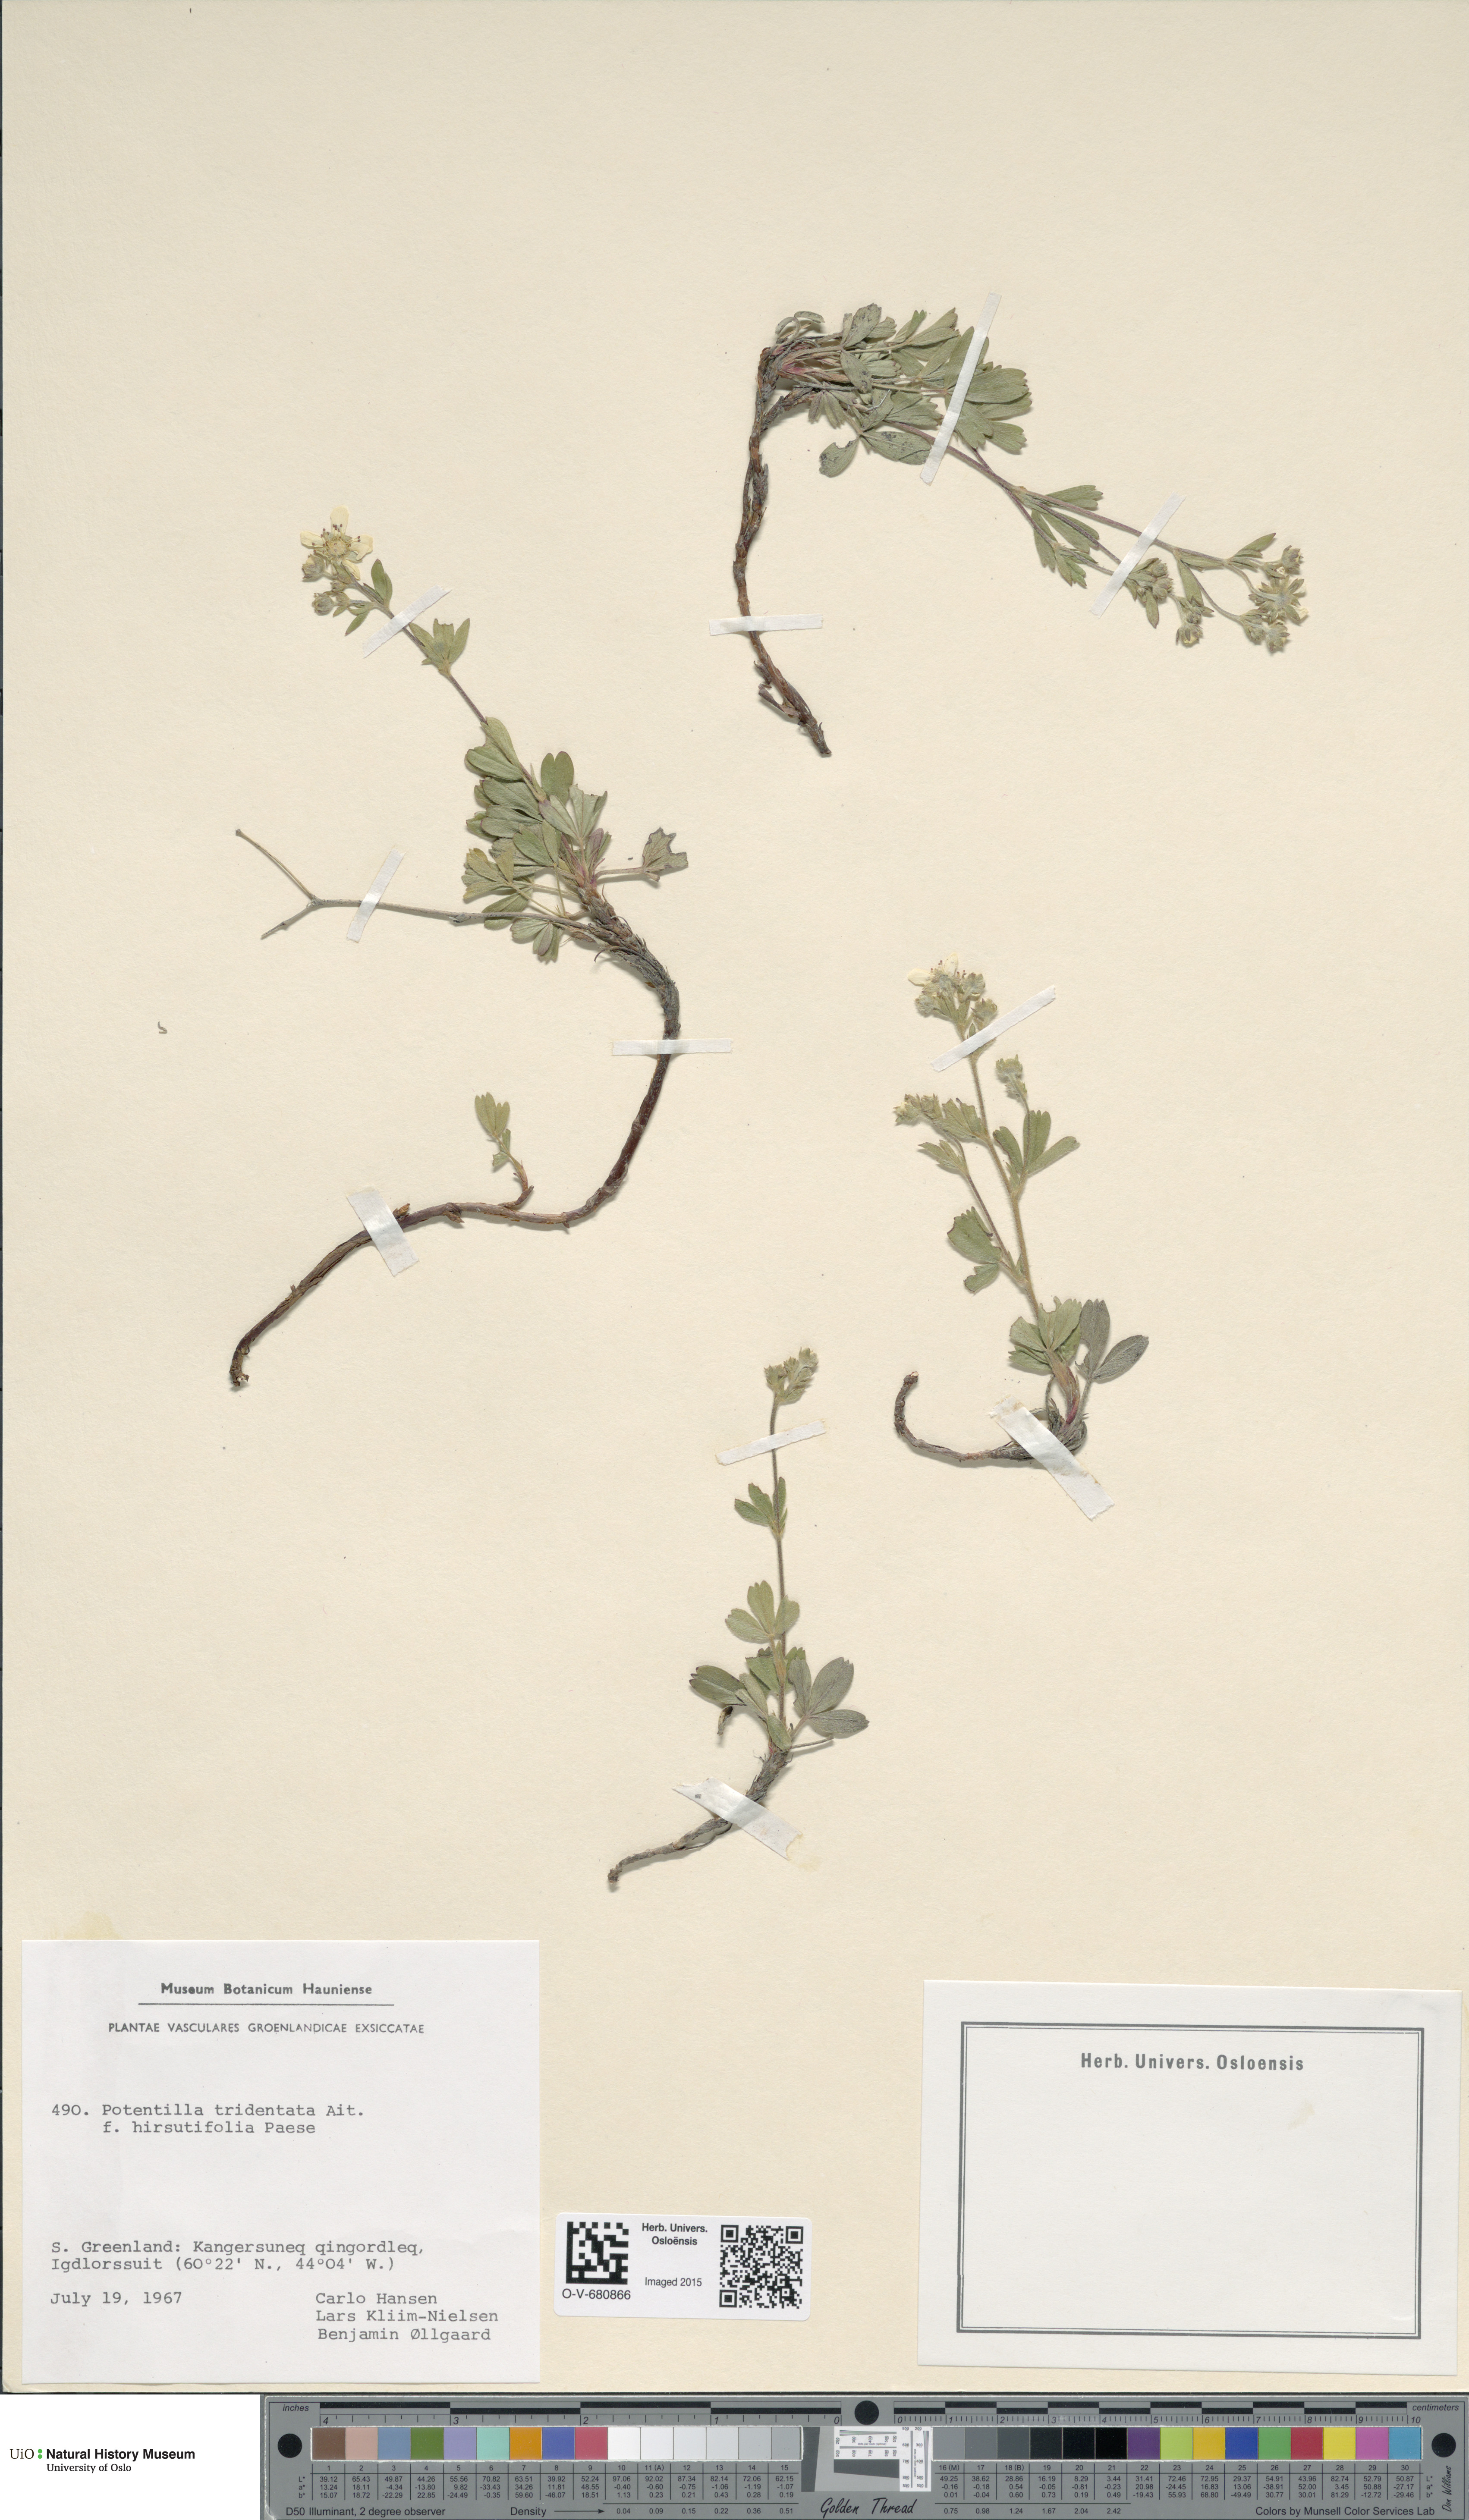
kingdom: Plantae
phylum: Tracheophyta
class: Magnoliopsida
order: Rosales
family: Rosaceae
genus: Sibbaldia
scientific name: Sibbaldia tridentata
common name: Three-toothed cinquefoil
